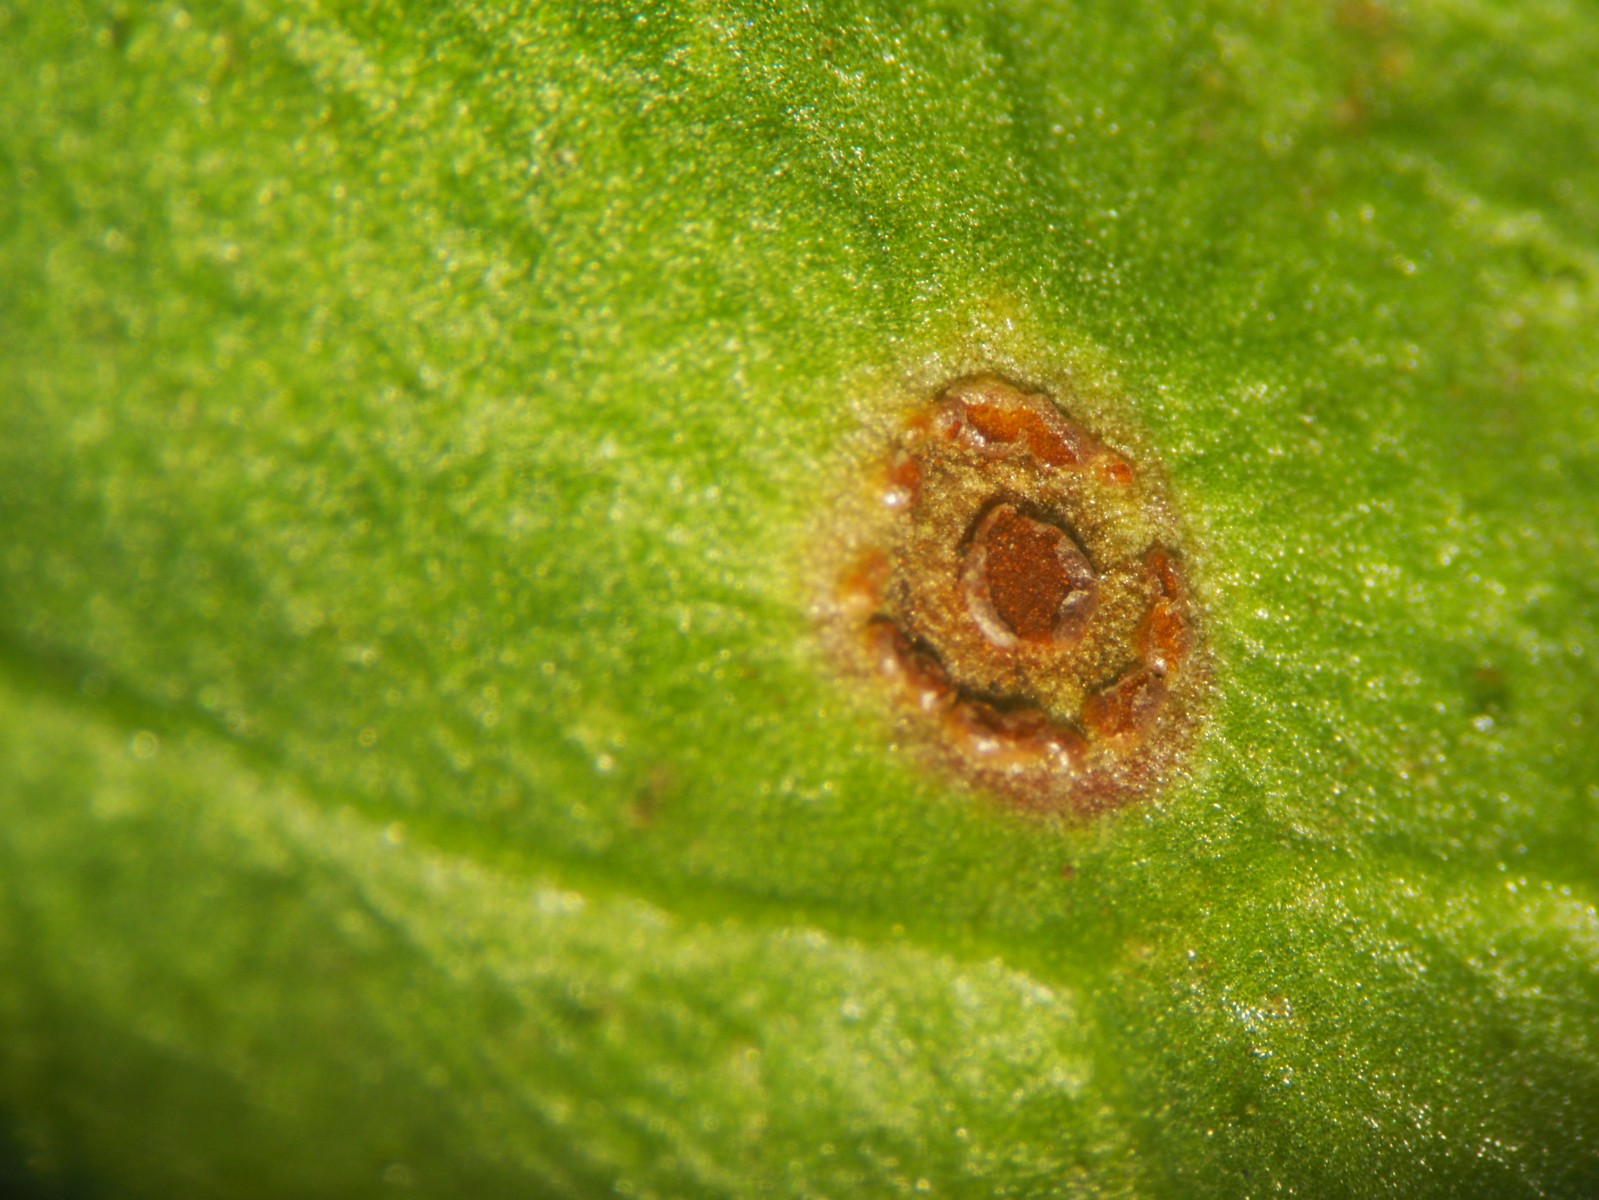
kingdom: Fungi
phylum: Basidiomycota
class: Pucciniomycetes
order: Pucciniales
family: Pucciniaceae
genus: Uromyces
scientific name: Uromyces betae
